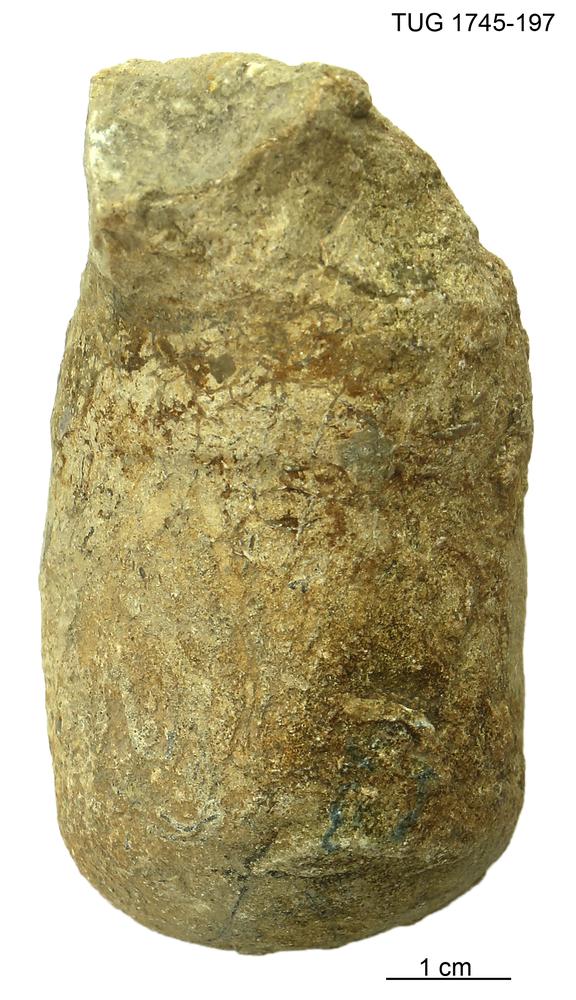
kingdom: Animalia
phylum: Mollusca
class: Cephalopoda
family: Protophragmoceratidae
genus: Protophragmoceras
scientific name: Protophragmoceras
